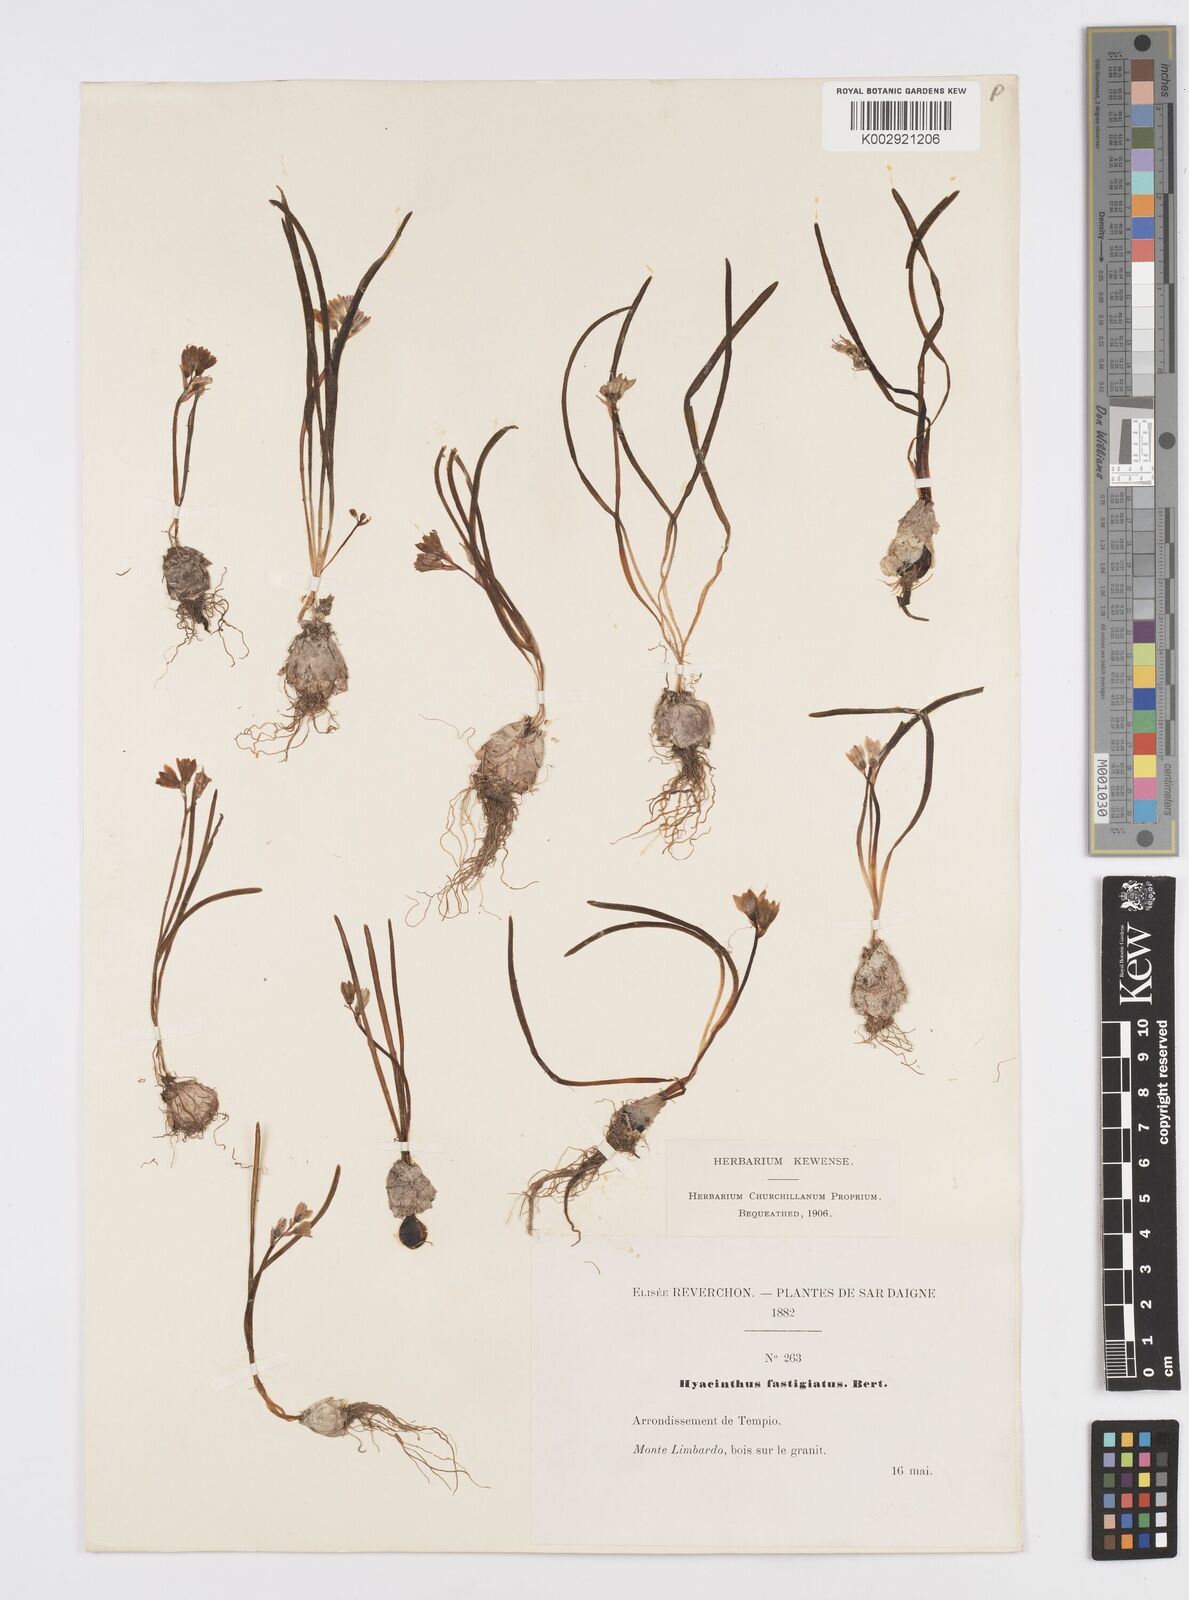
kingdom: Plantae
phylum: Tracheophyta
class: Liliopsida
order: Asparagales
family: Asparagaceae
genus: Brimeura
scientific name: Brimeura fastigiata
